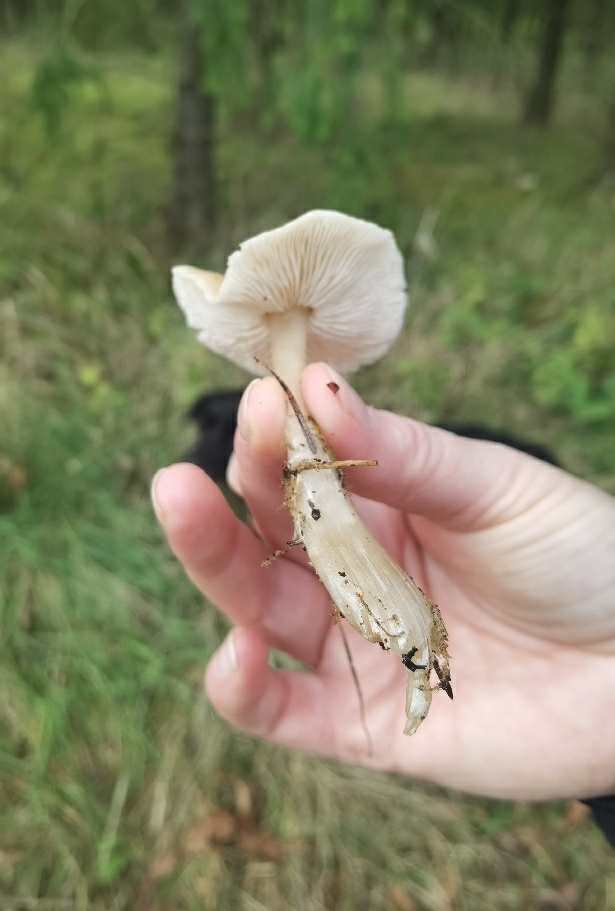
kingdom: Fungi
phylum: Basidiomycota
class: Agaricomycetes
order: Agaricales
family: Omphalotaceae
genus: Rhodocollybia
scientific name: Rhodocollybia asema
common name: horngrå fladhat
